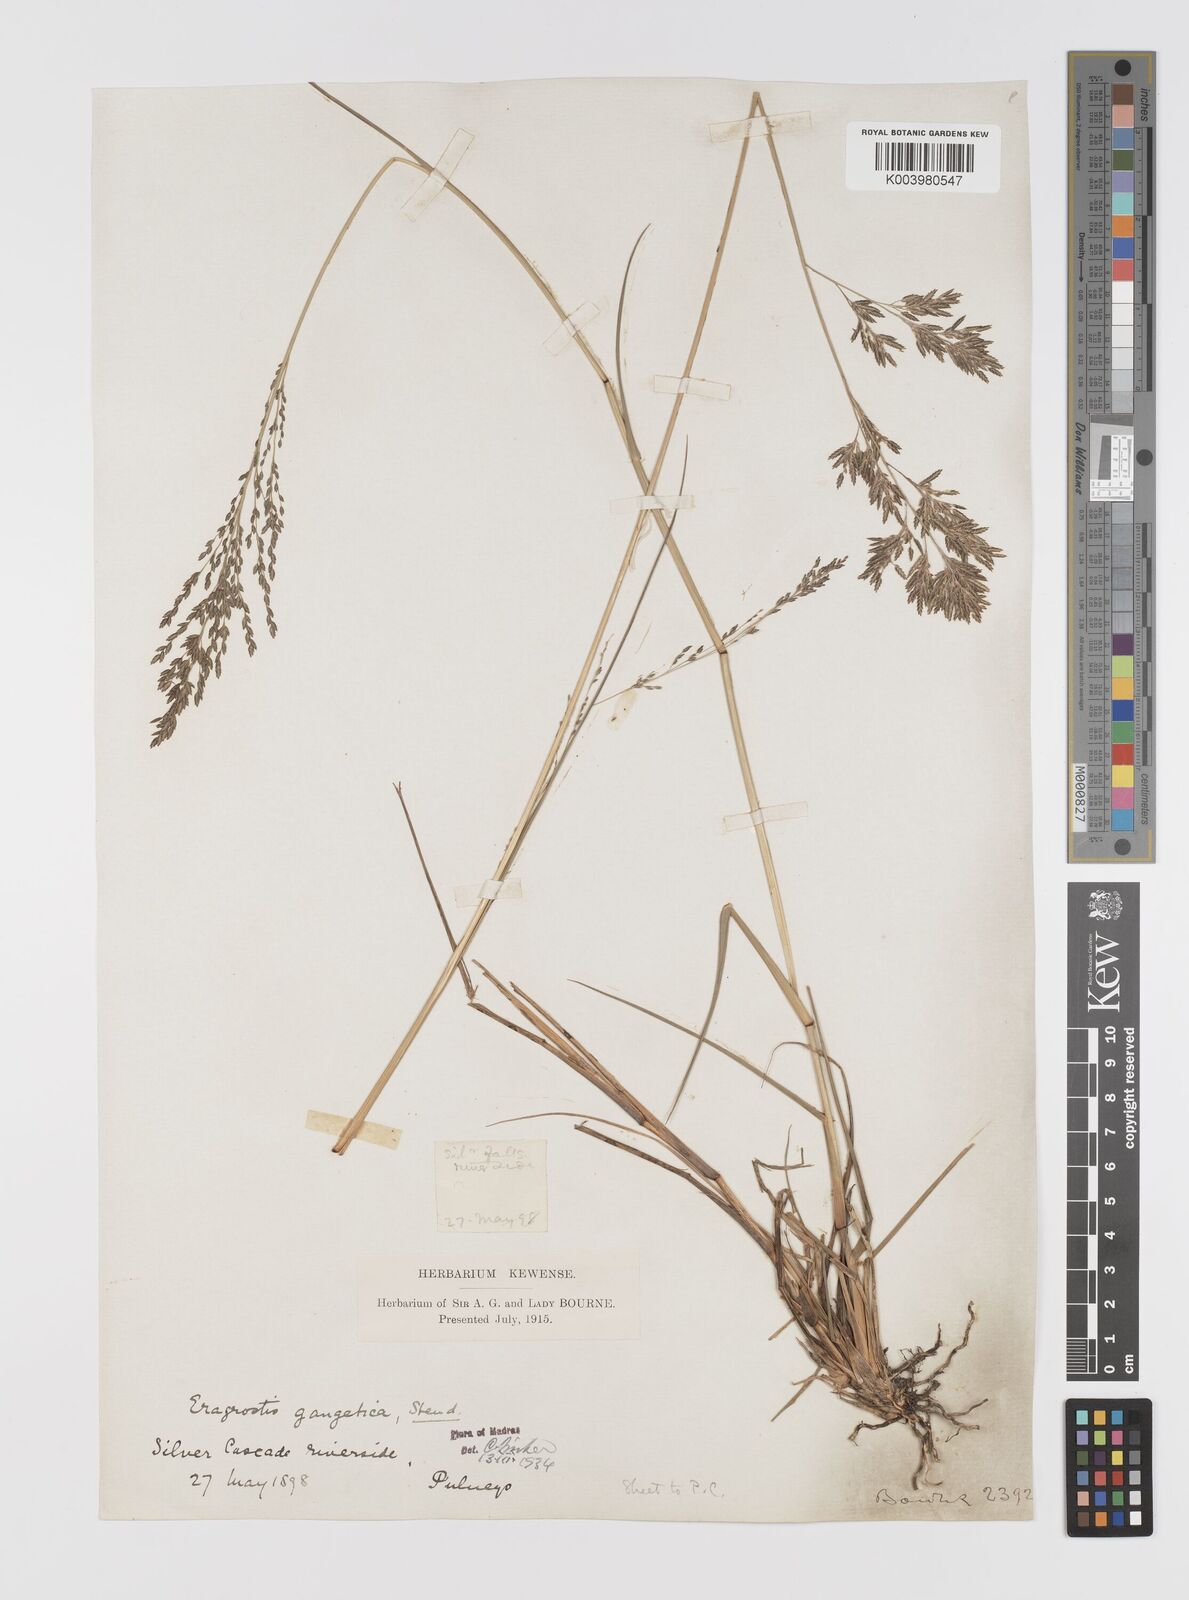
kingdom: Plantae
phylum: Tracheophyta
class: Liliopsida
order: Poales
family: Poaceae
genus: Eragrostis
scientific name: Eragrostis
